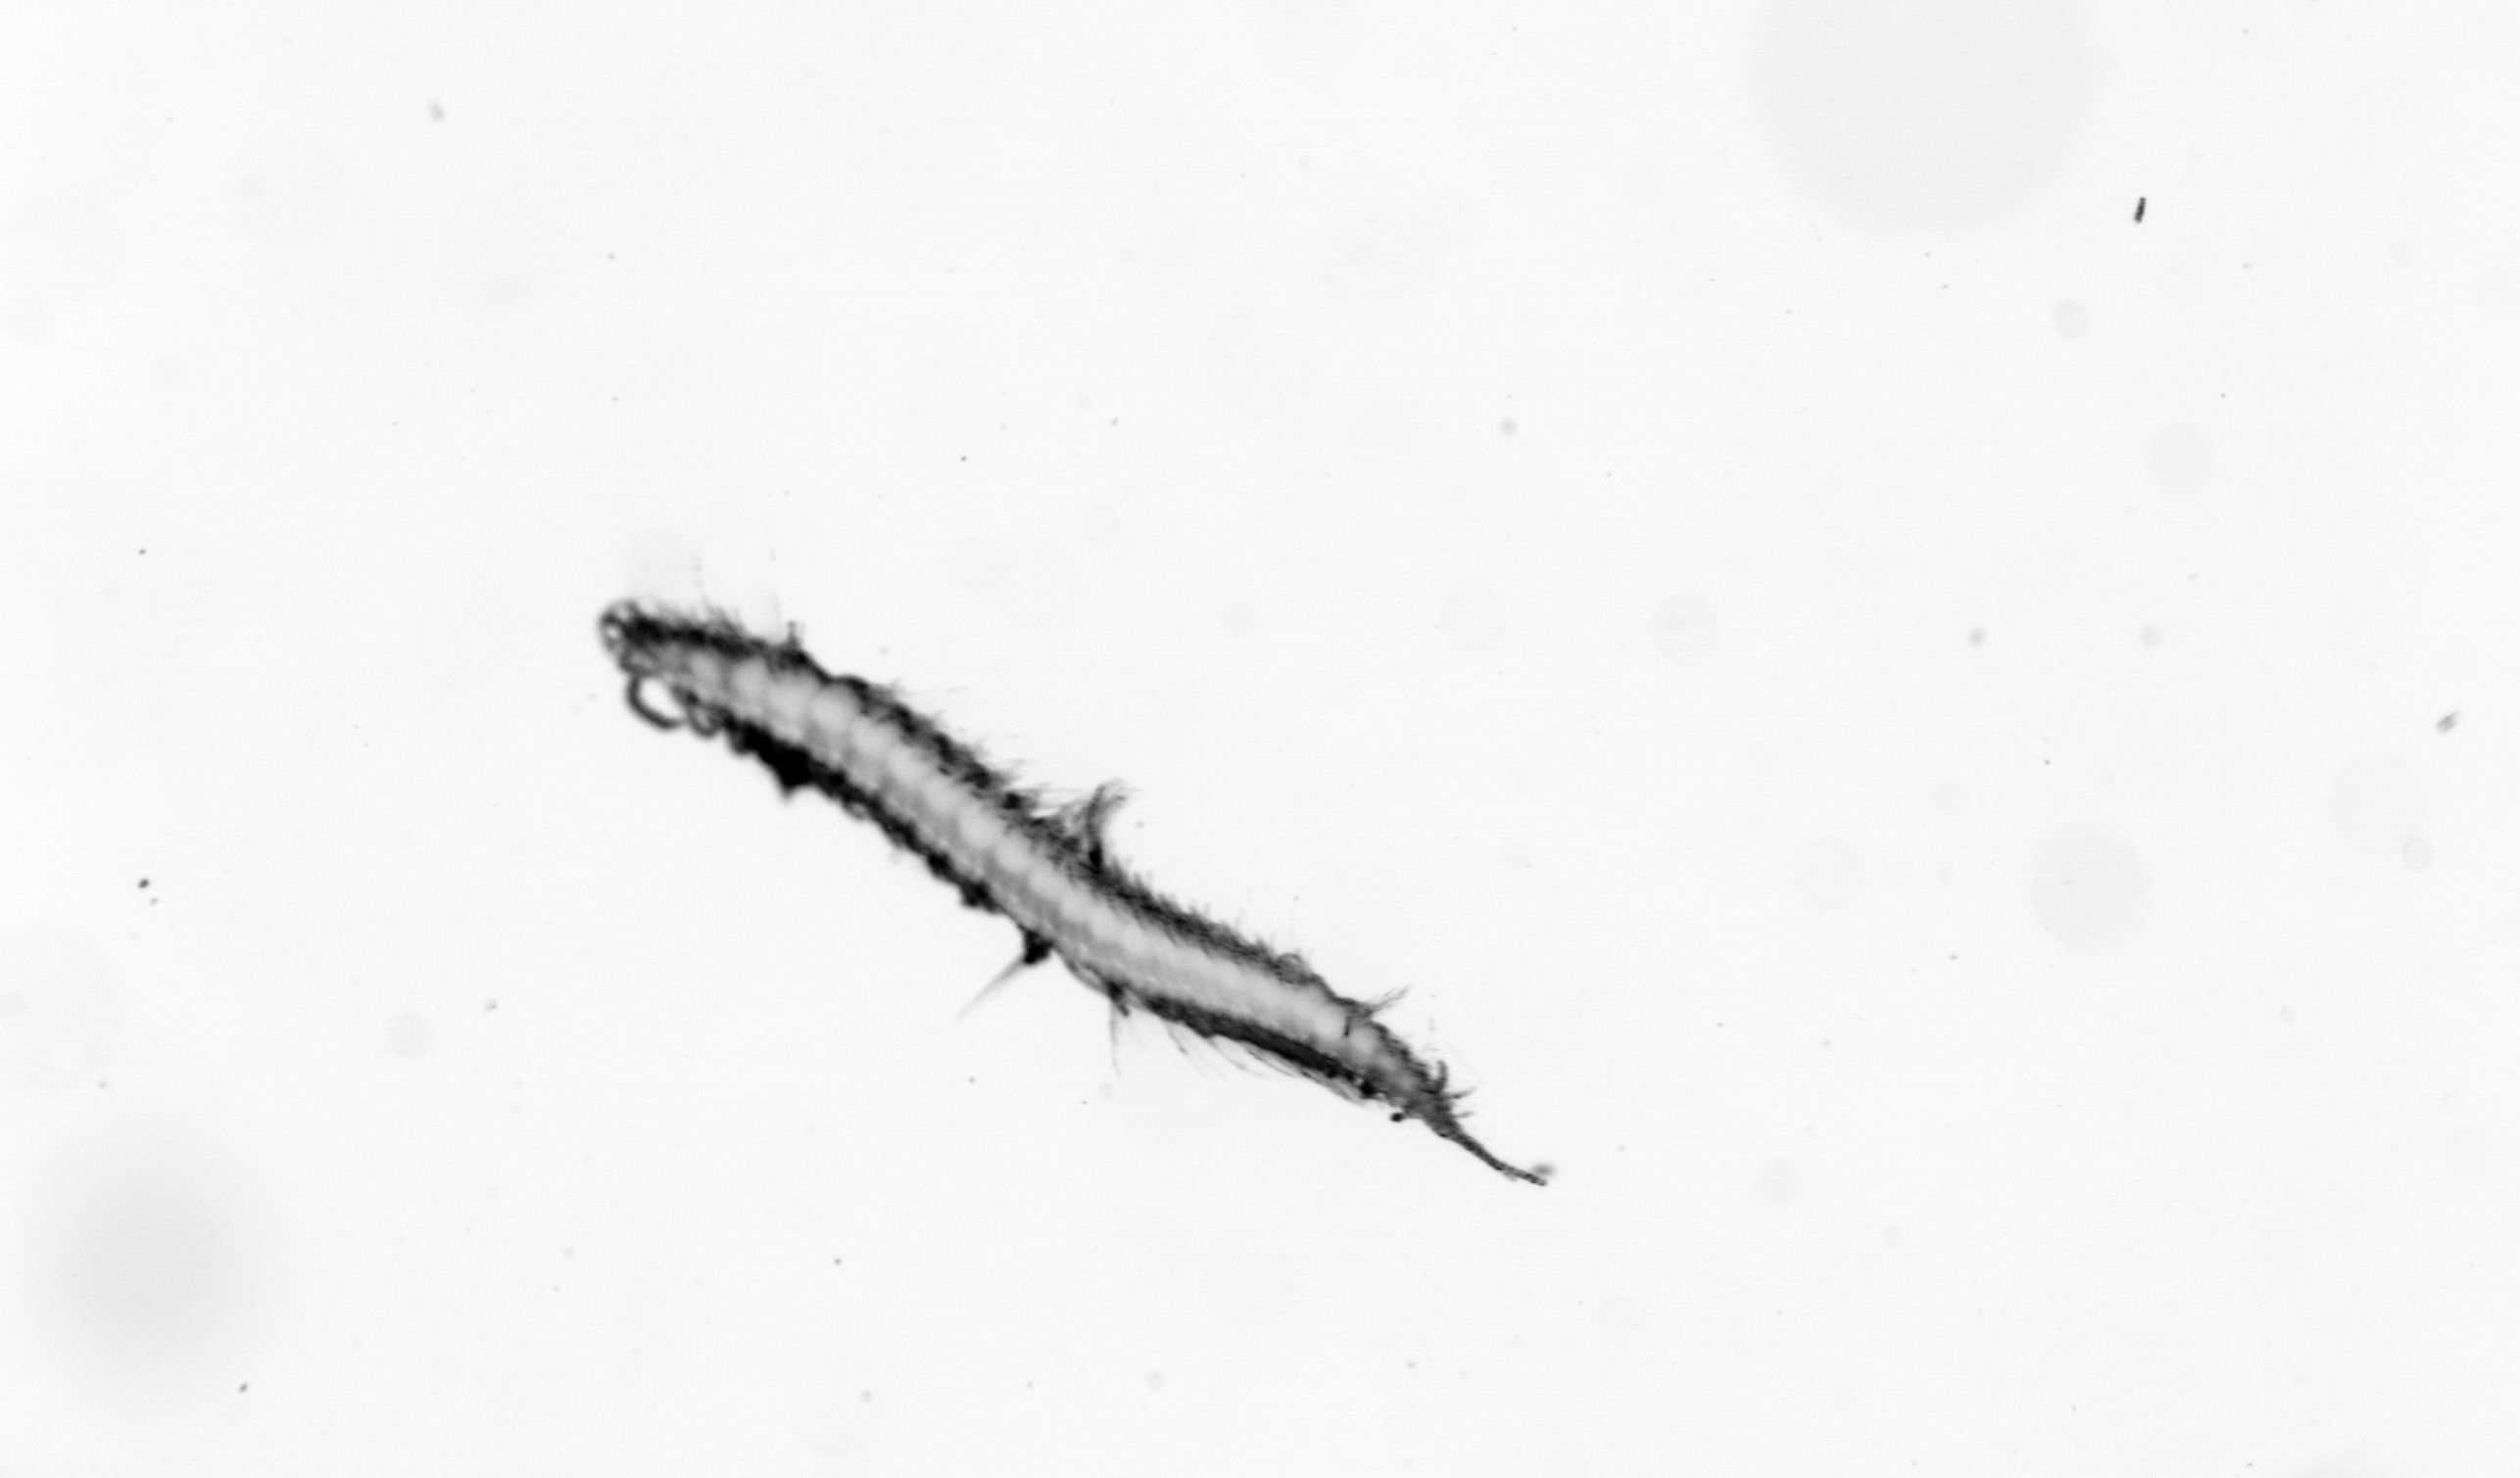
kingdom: Animalia
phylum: Annelida
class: Polychaeta
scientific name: Polychaeta
